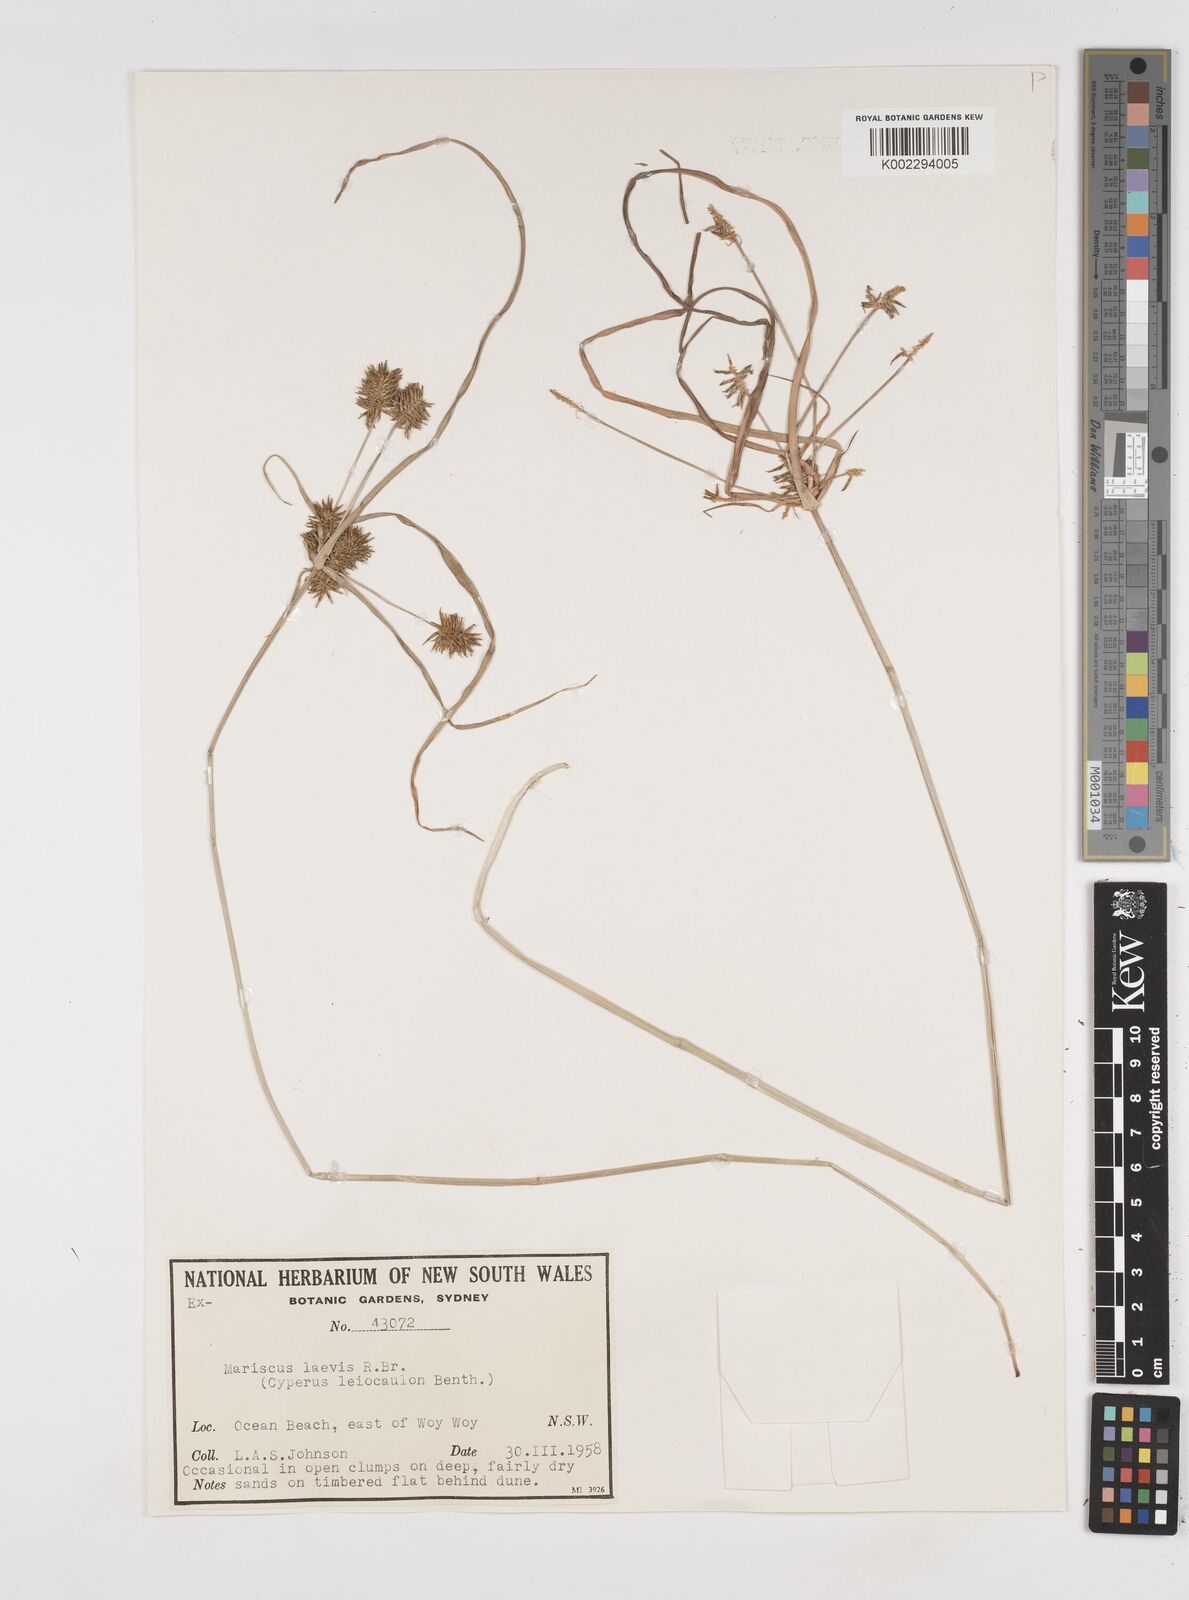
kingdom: Plantae
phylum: Tracheophyta
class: Liliopsida
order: Poales
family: Cyperaceae
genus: Cyperus
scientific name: Cyperus leiocaulon
